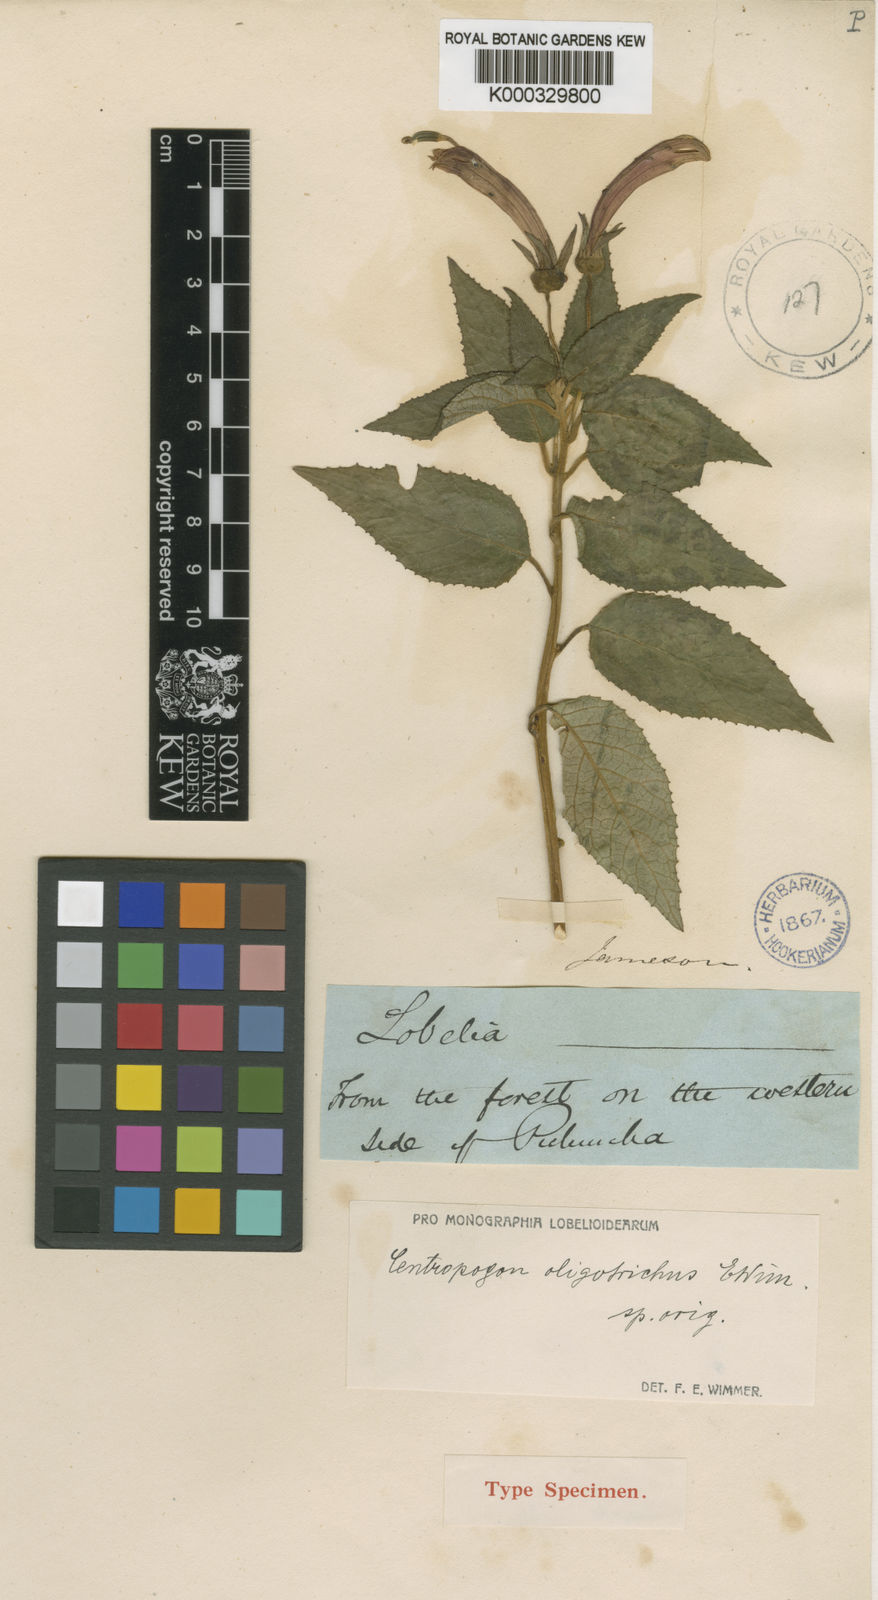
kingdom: Plantae
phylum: Tracheophyta
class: Magnoliopsida
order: Asterales
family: Campanulaceae
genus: Centropogon
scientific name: Centropogon oligotrichus
